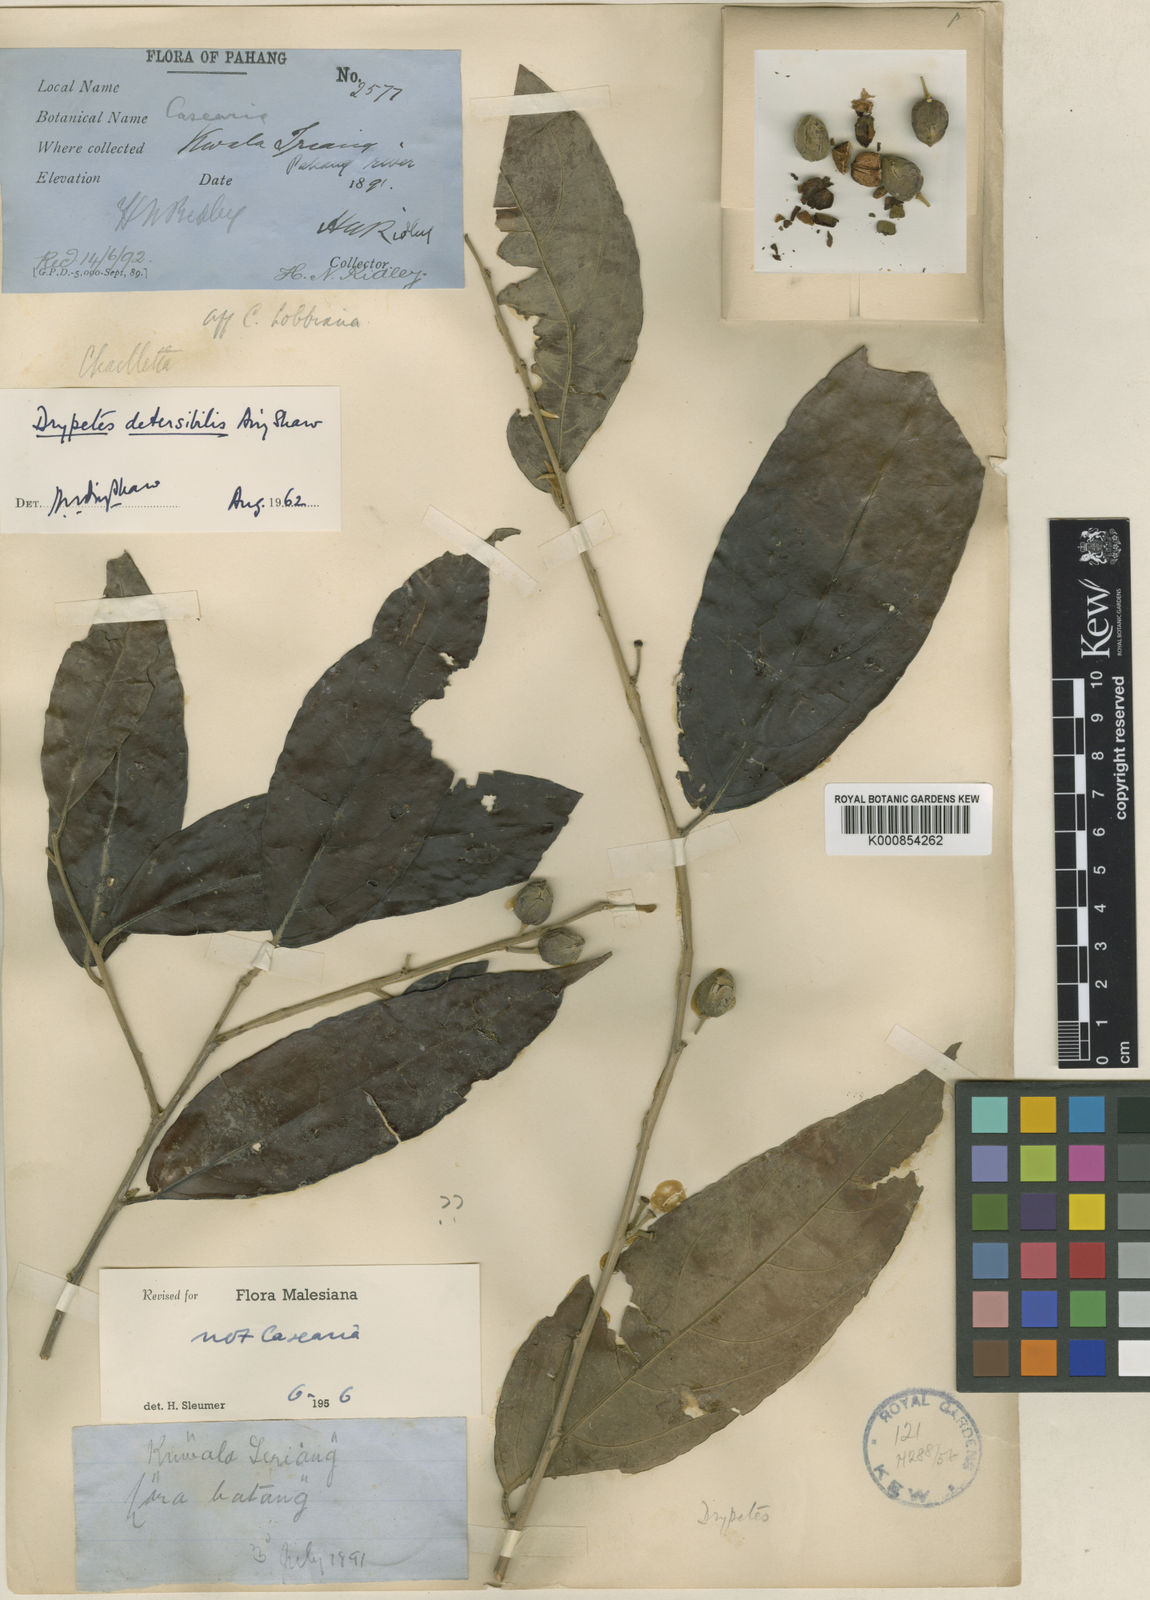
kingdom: Plantae
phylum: Tracheophyta
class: Magnoliopsida
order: Malpighiales
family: Putranjivaceae
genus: Drypetes
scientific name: Drypetes detersibilis
